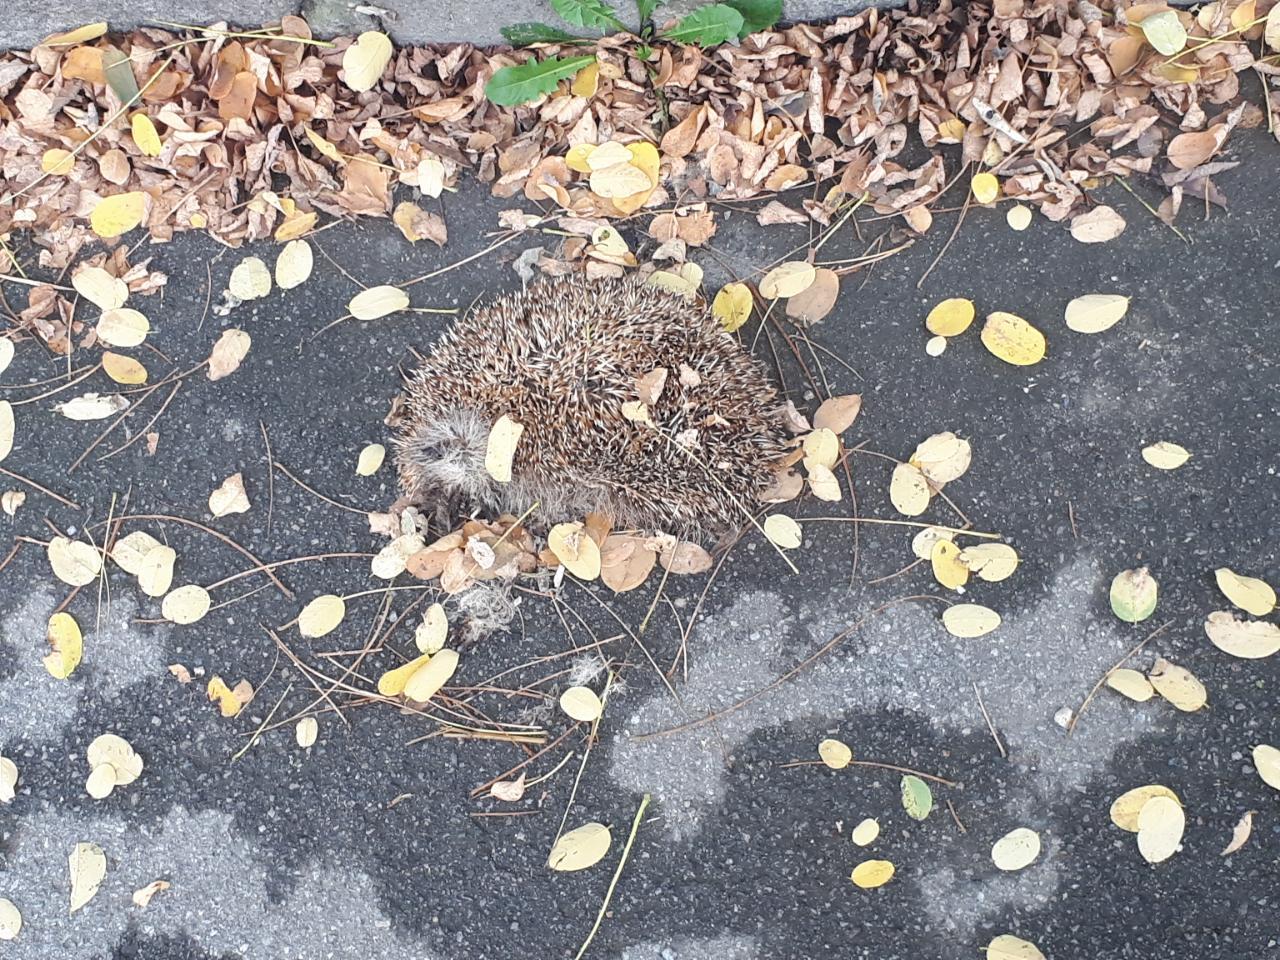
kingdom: Animalia
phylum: Chordata
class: Mammalia
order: Erinaceomorpha
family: Erinaceidae
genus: Erinaceus
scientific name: Erinaceus
